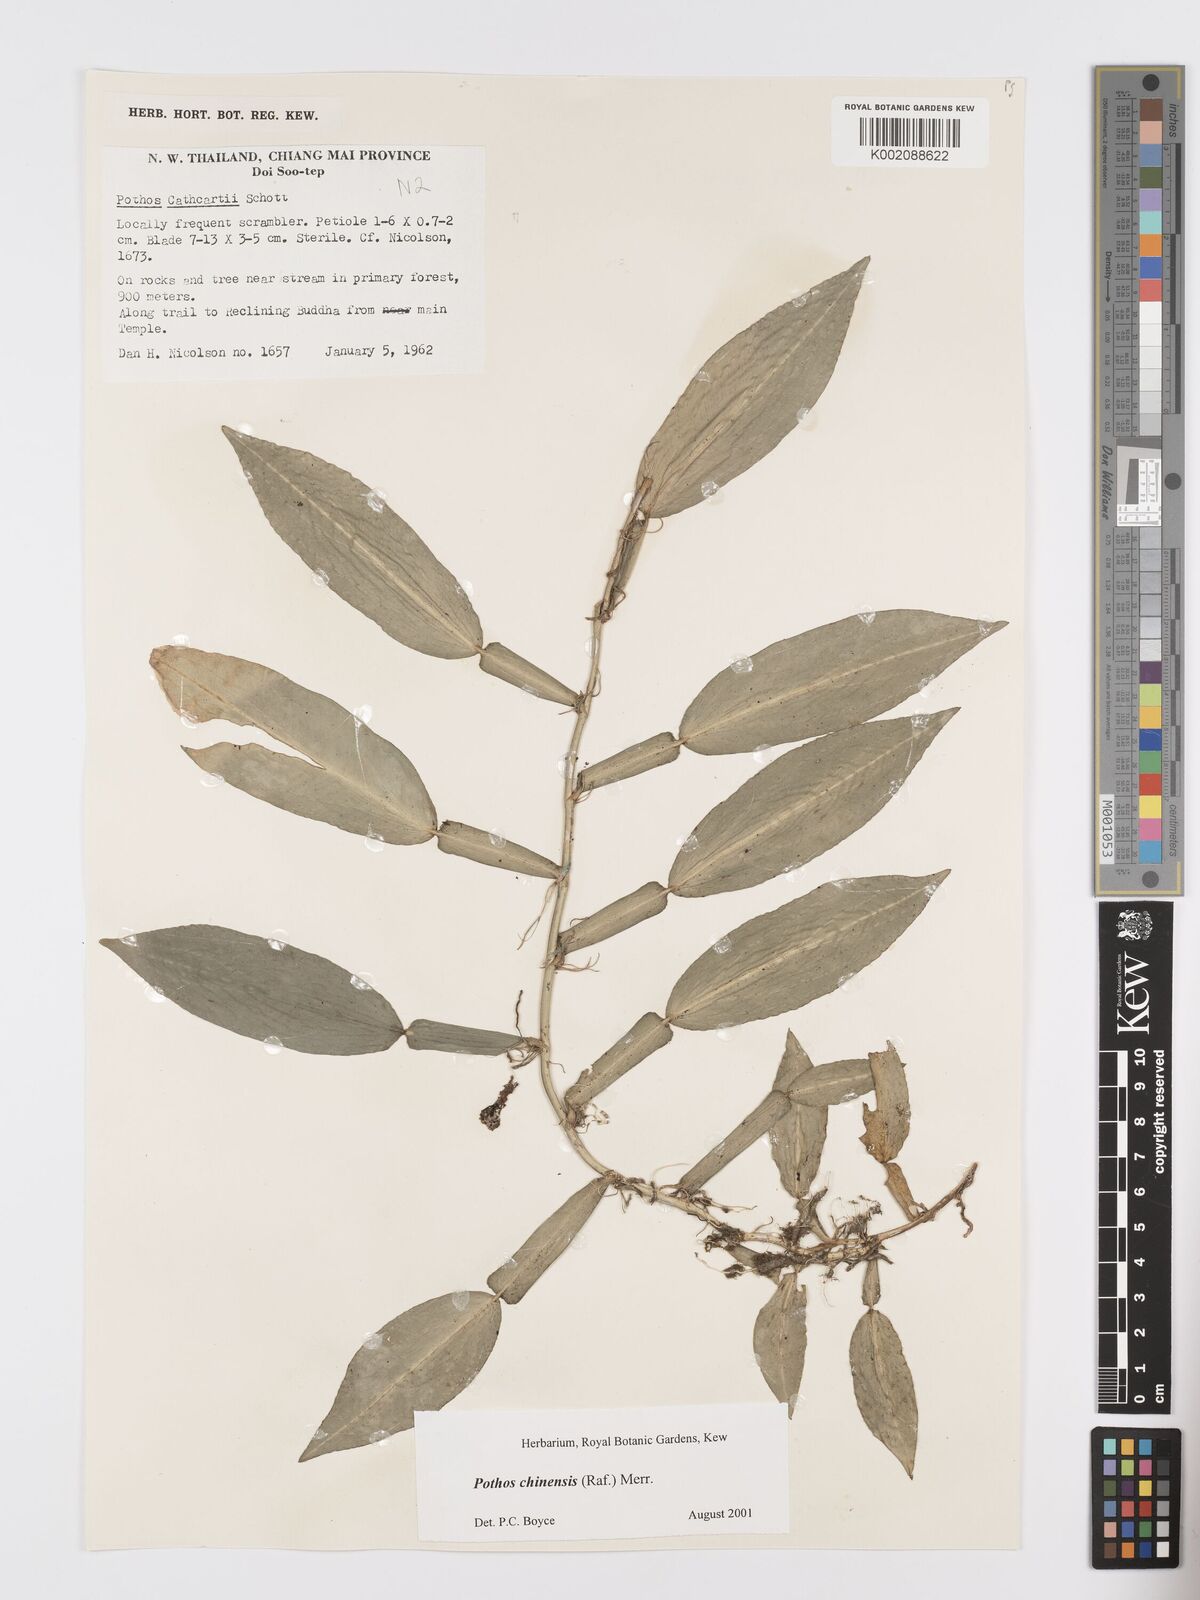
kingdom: Plantae
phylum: Tracheophyta
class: Liliopsida
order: Alismatales
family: Araceae
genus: Pothos
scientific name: Pothos chinensis
